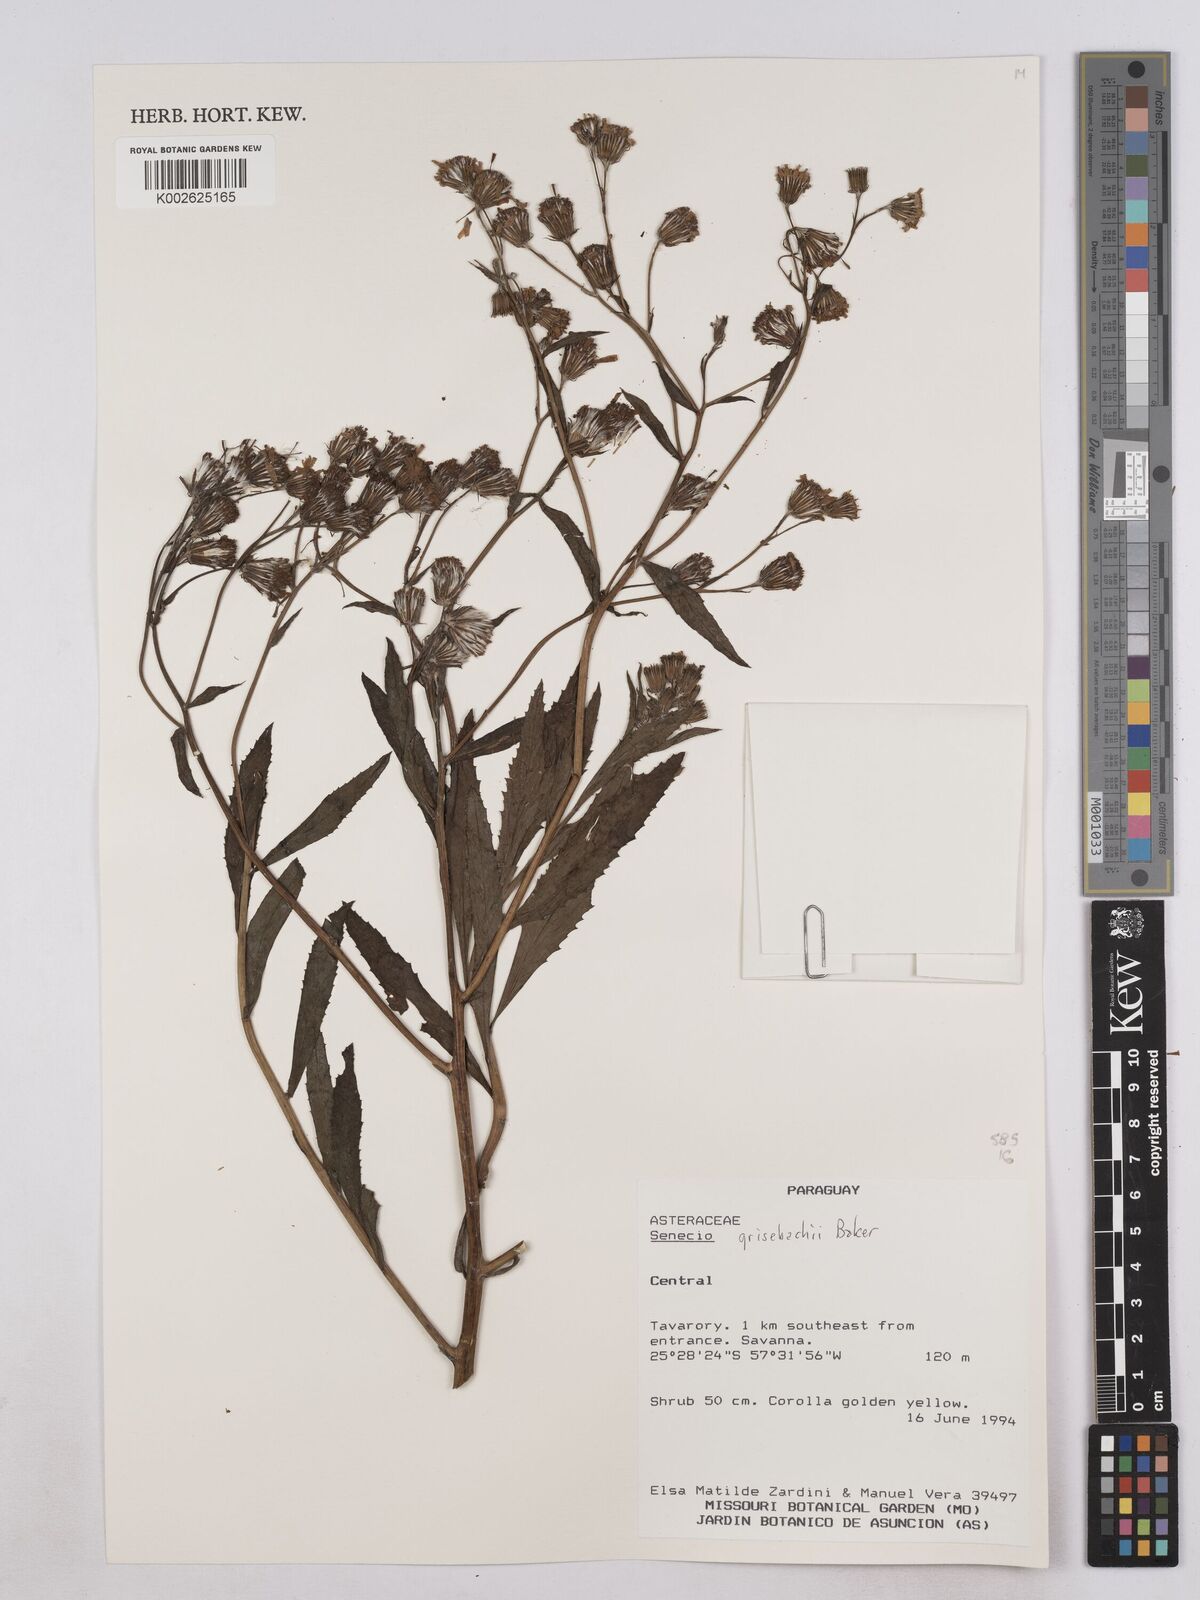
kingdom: Plantae
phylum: Tracheophyta
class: Magnoliopsida
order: Asterales
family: Asteraceae
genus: Senecio
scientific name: Senecio grisebachii
